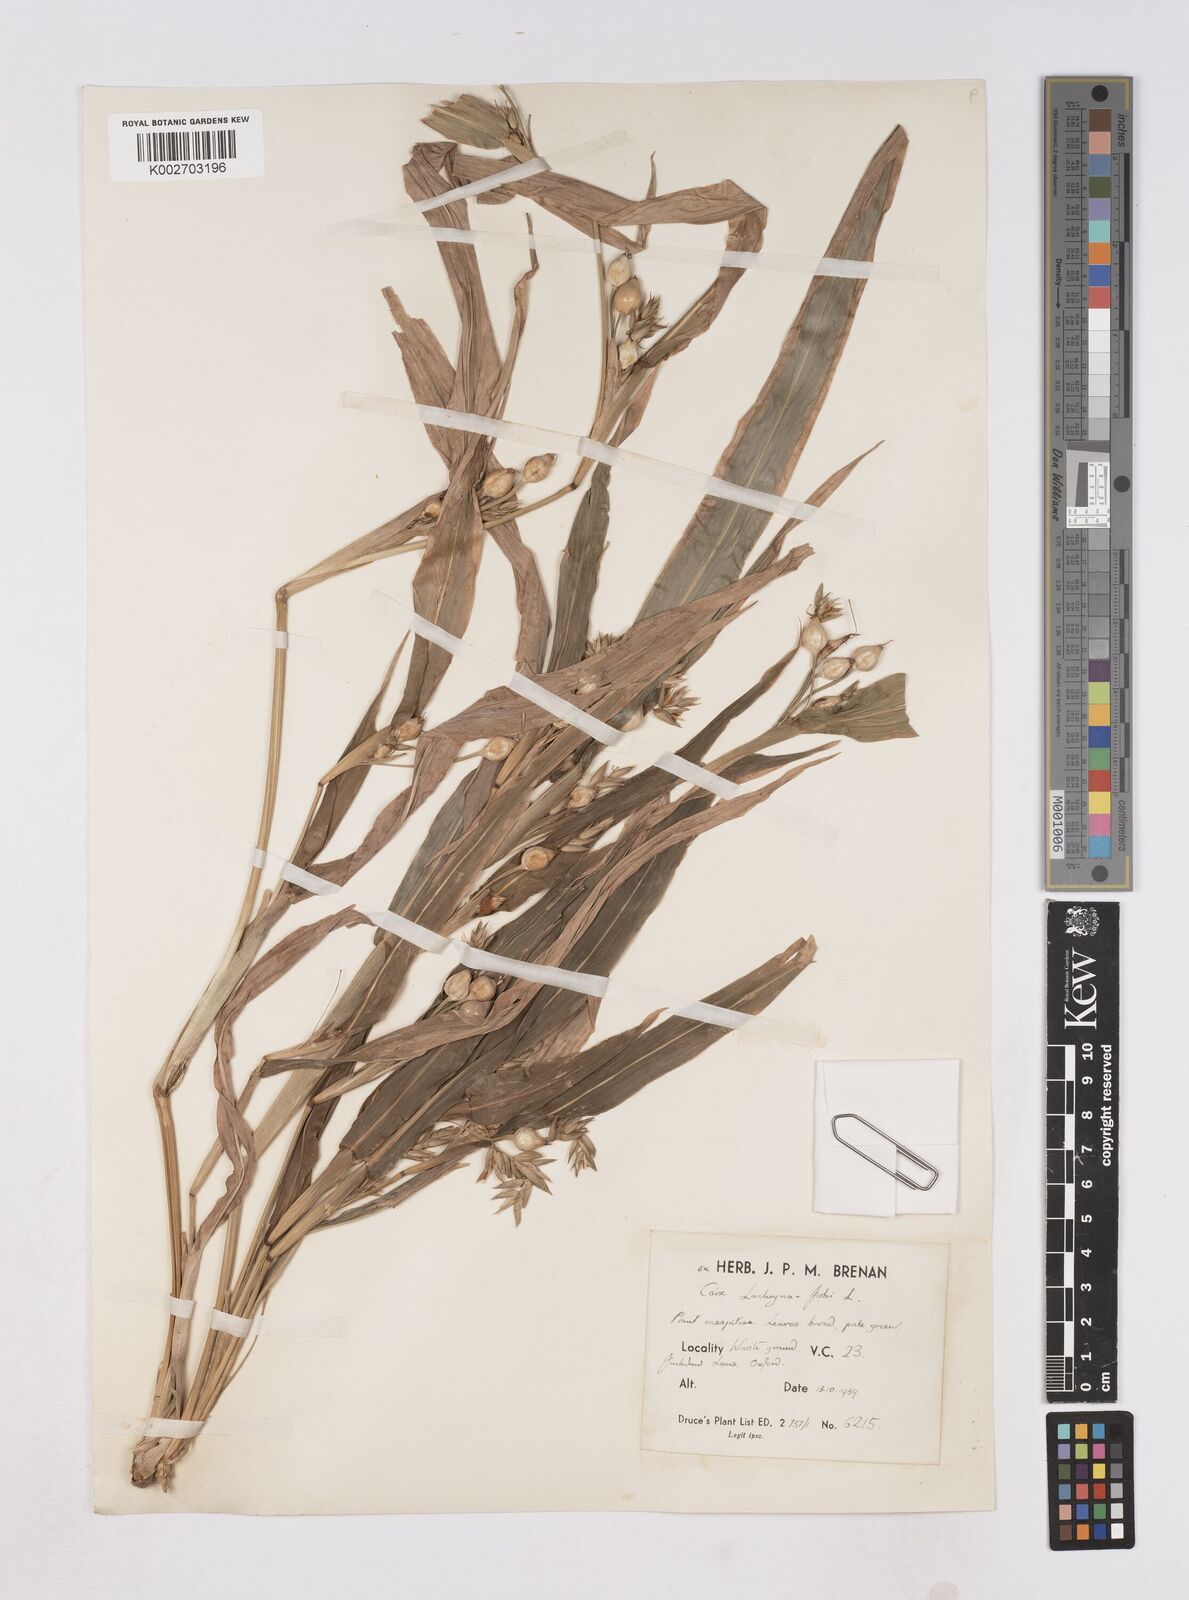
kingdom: Plantae
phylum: Tracheophyta
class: Liliopsida
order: Poales
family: Poaceae
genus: Coix
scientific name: Coix lacryma-jobi
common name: Job's tears
